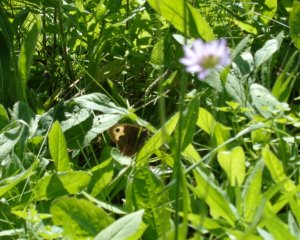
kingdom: Animalia
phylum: Arthropoda
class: Insecta
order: Lepidoptera
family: Nymphalidae
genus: Cercyonis
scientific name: Cercyonis pegala
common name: Common Wood-Nymph
